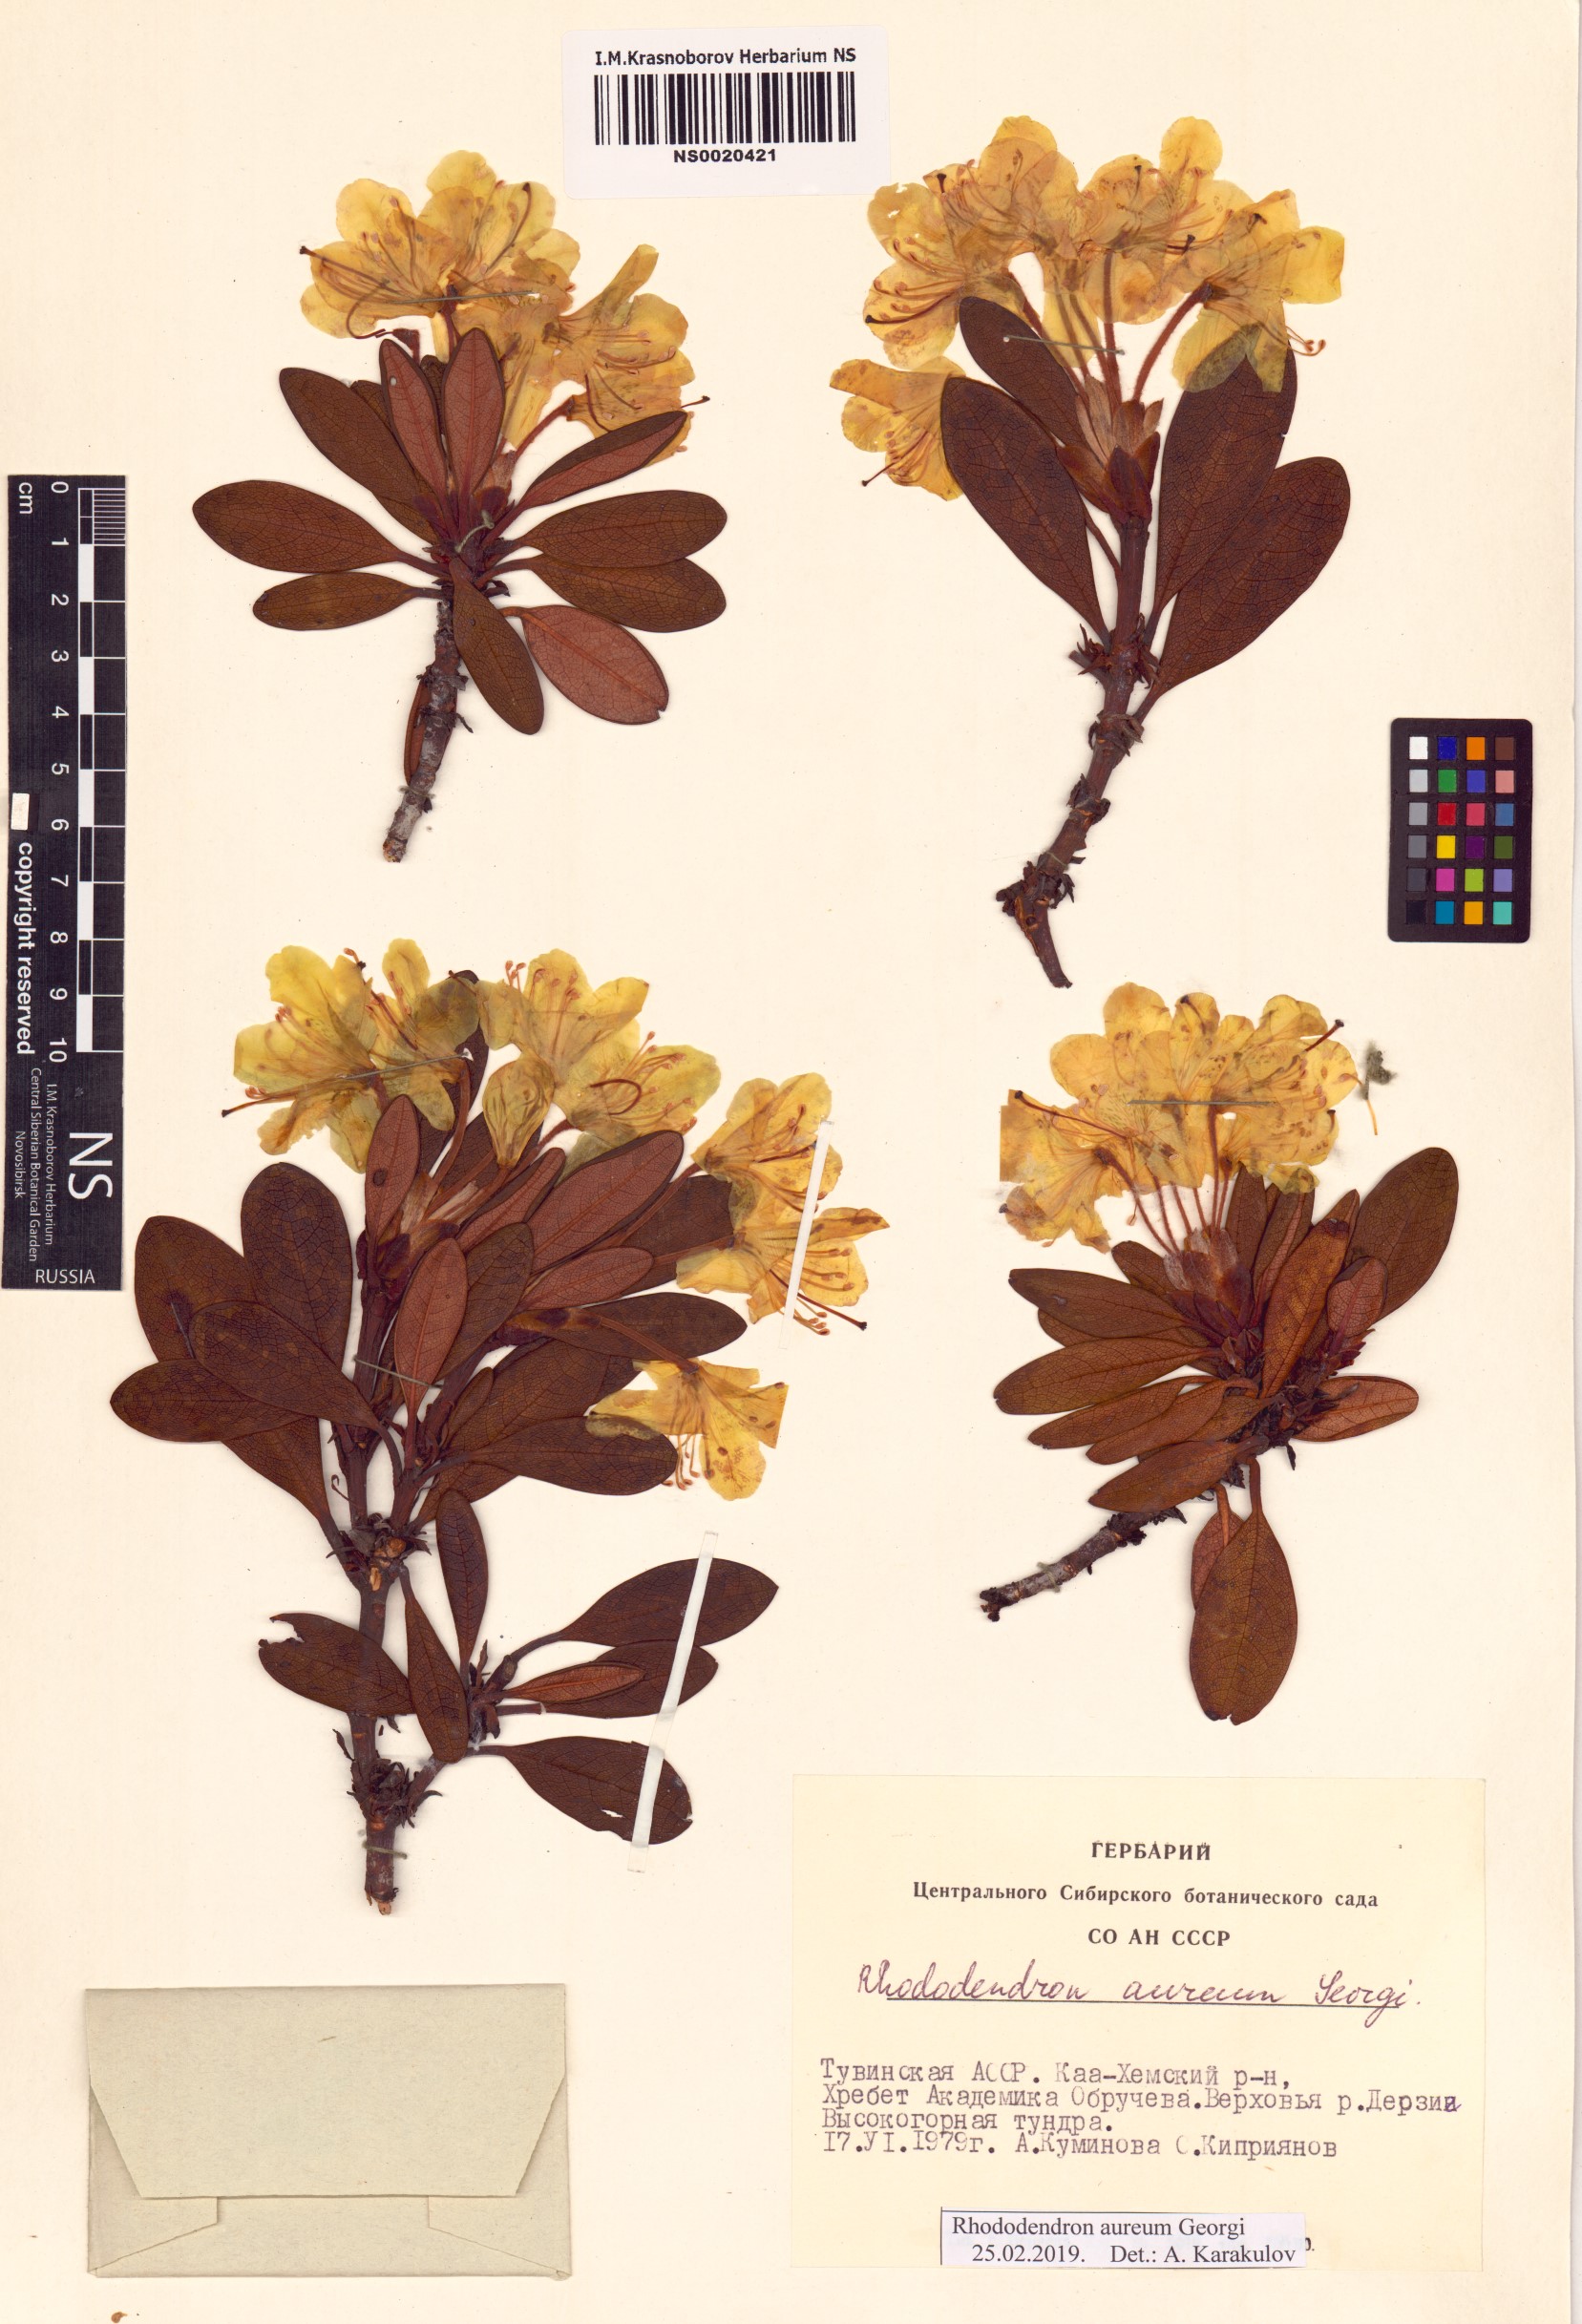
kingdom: Plantae
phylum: Tracheophyta
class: Magnoliopsida
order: Ericales
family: Ericaceae
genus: Rhododendron
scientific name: Rhododendron aureum
